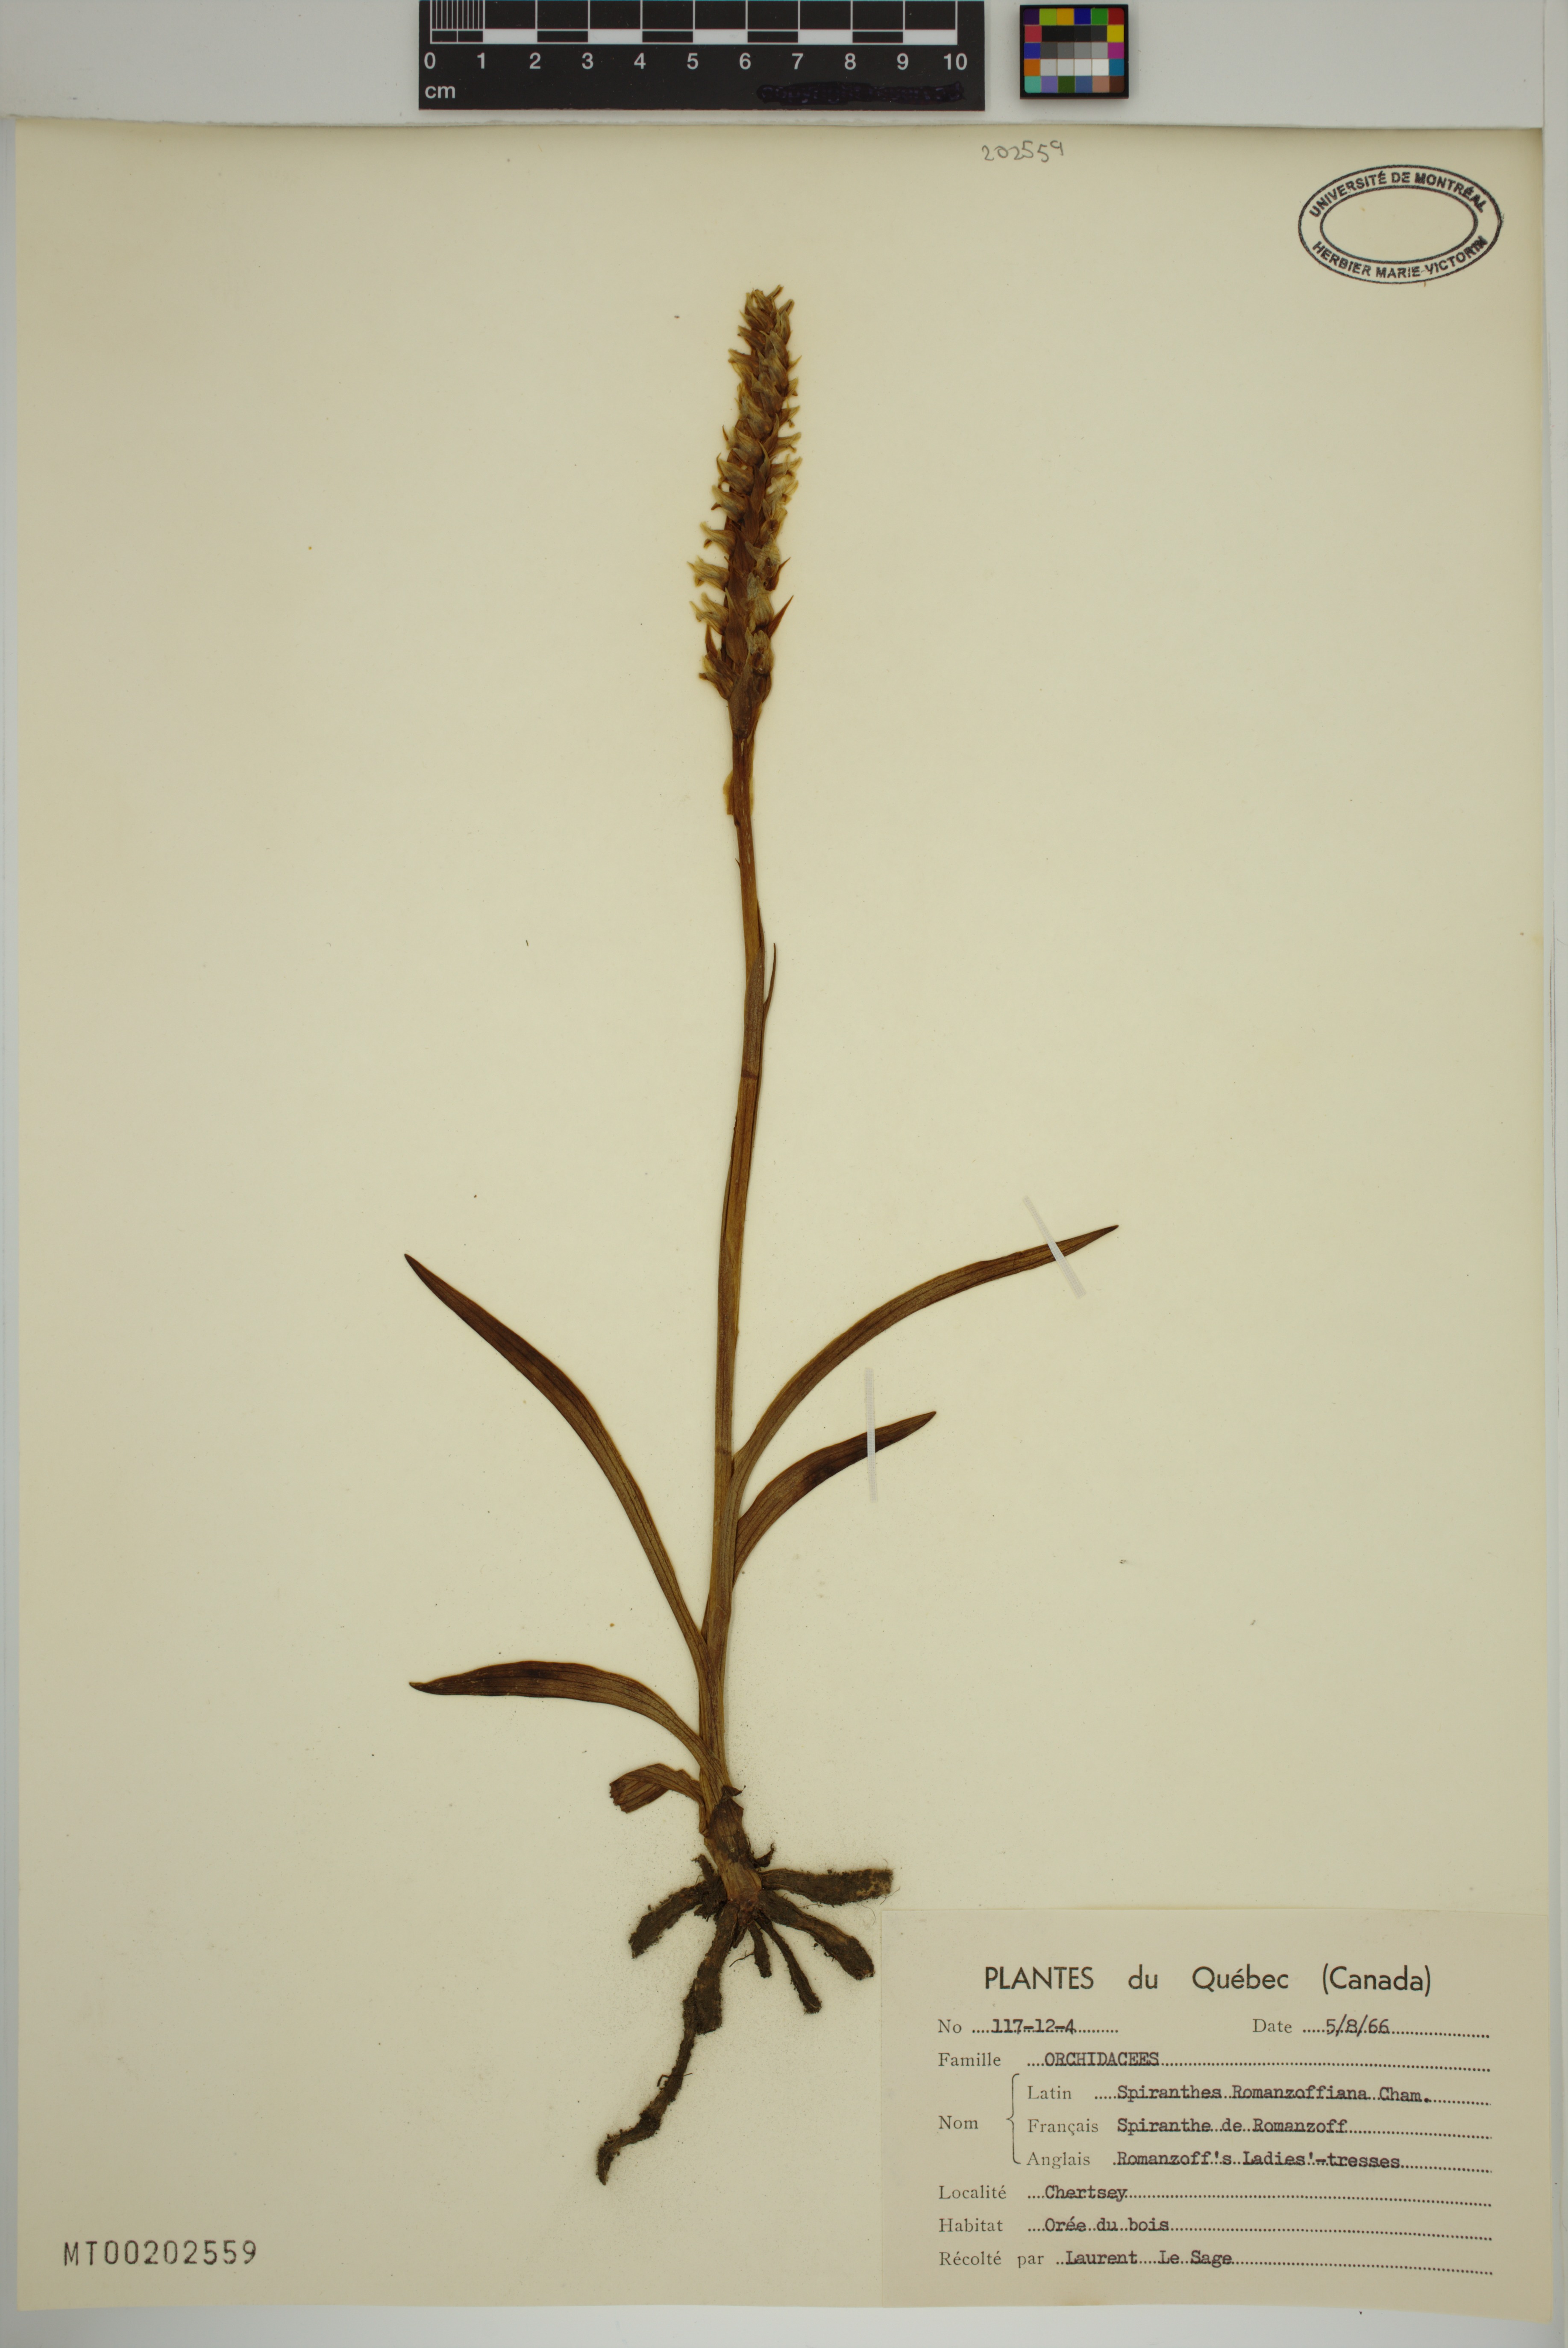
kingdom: Plantae
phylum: Tracheophyta
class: Liliopsida
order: Asparagales
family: Orchidaceae
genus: Spiranthes
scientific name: Spiranthes romanzoffiana
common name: Irish lady's-tresses
